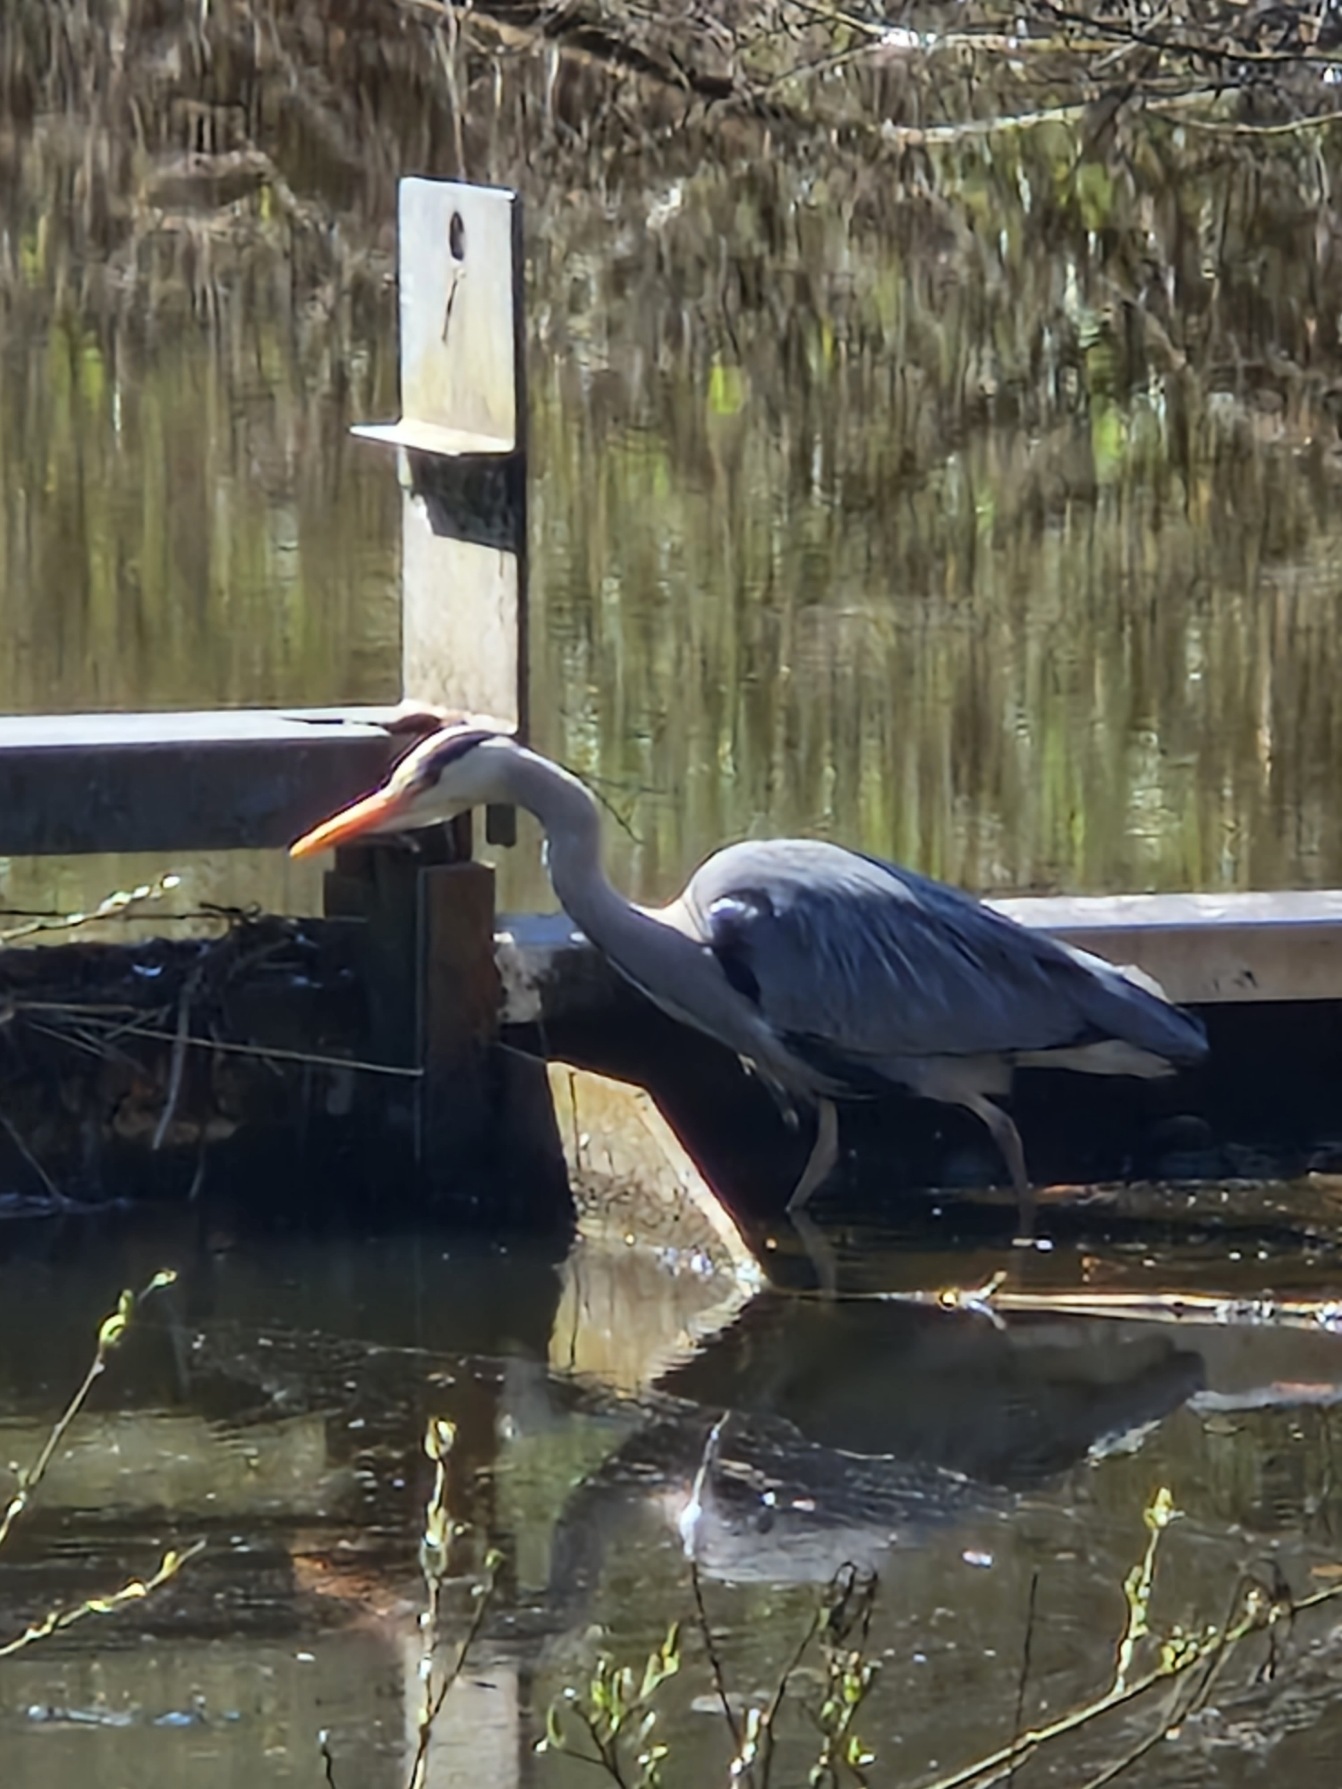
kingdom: Animalia
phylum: Chordata
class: Aves
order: Pelecaniformes
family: Ardeidae
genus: Ardea
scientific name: Ardea cinerea
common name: Fiskehejre
